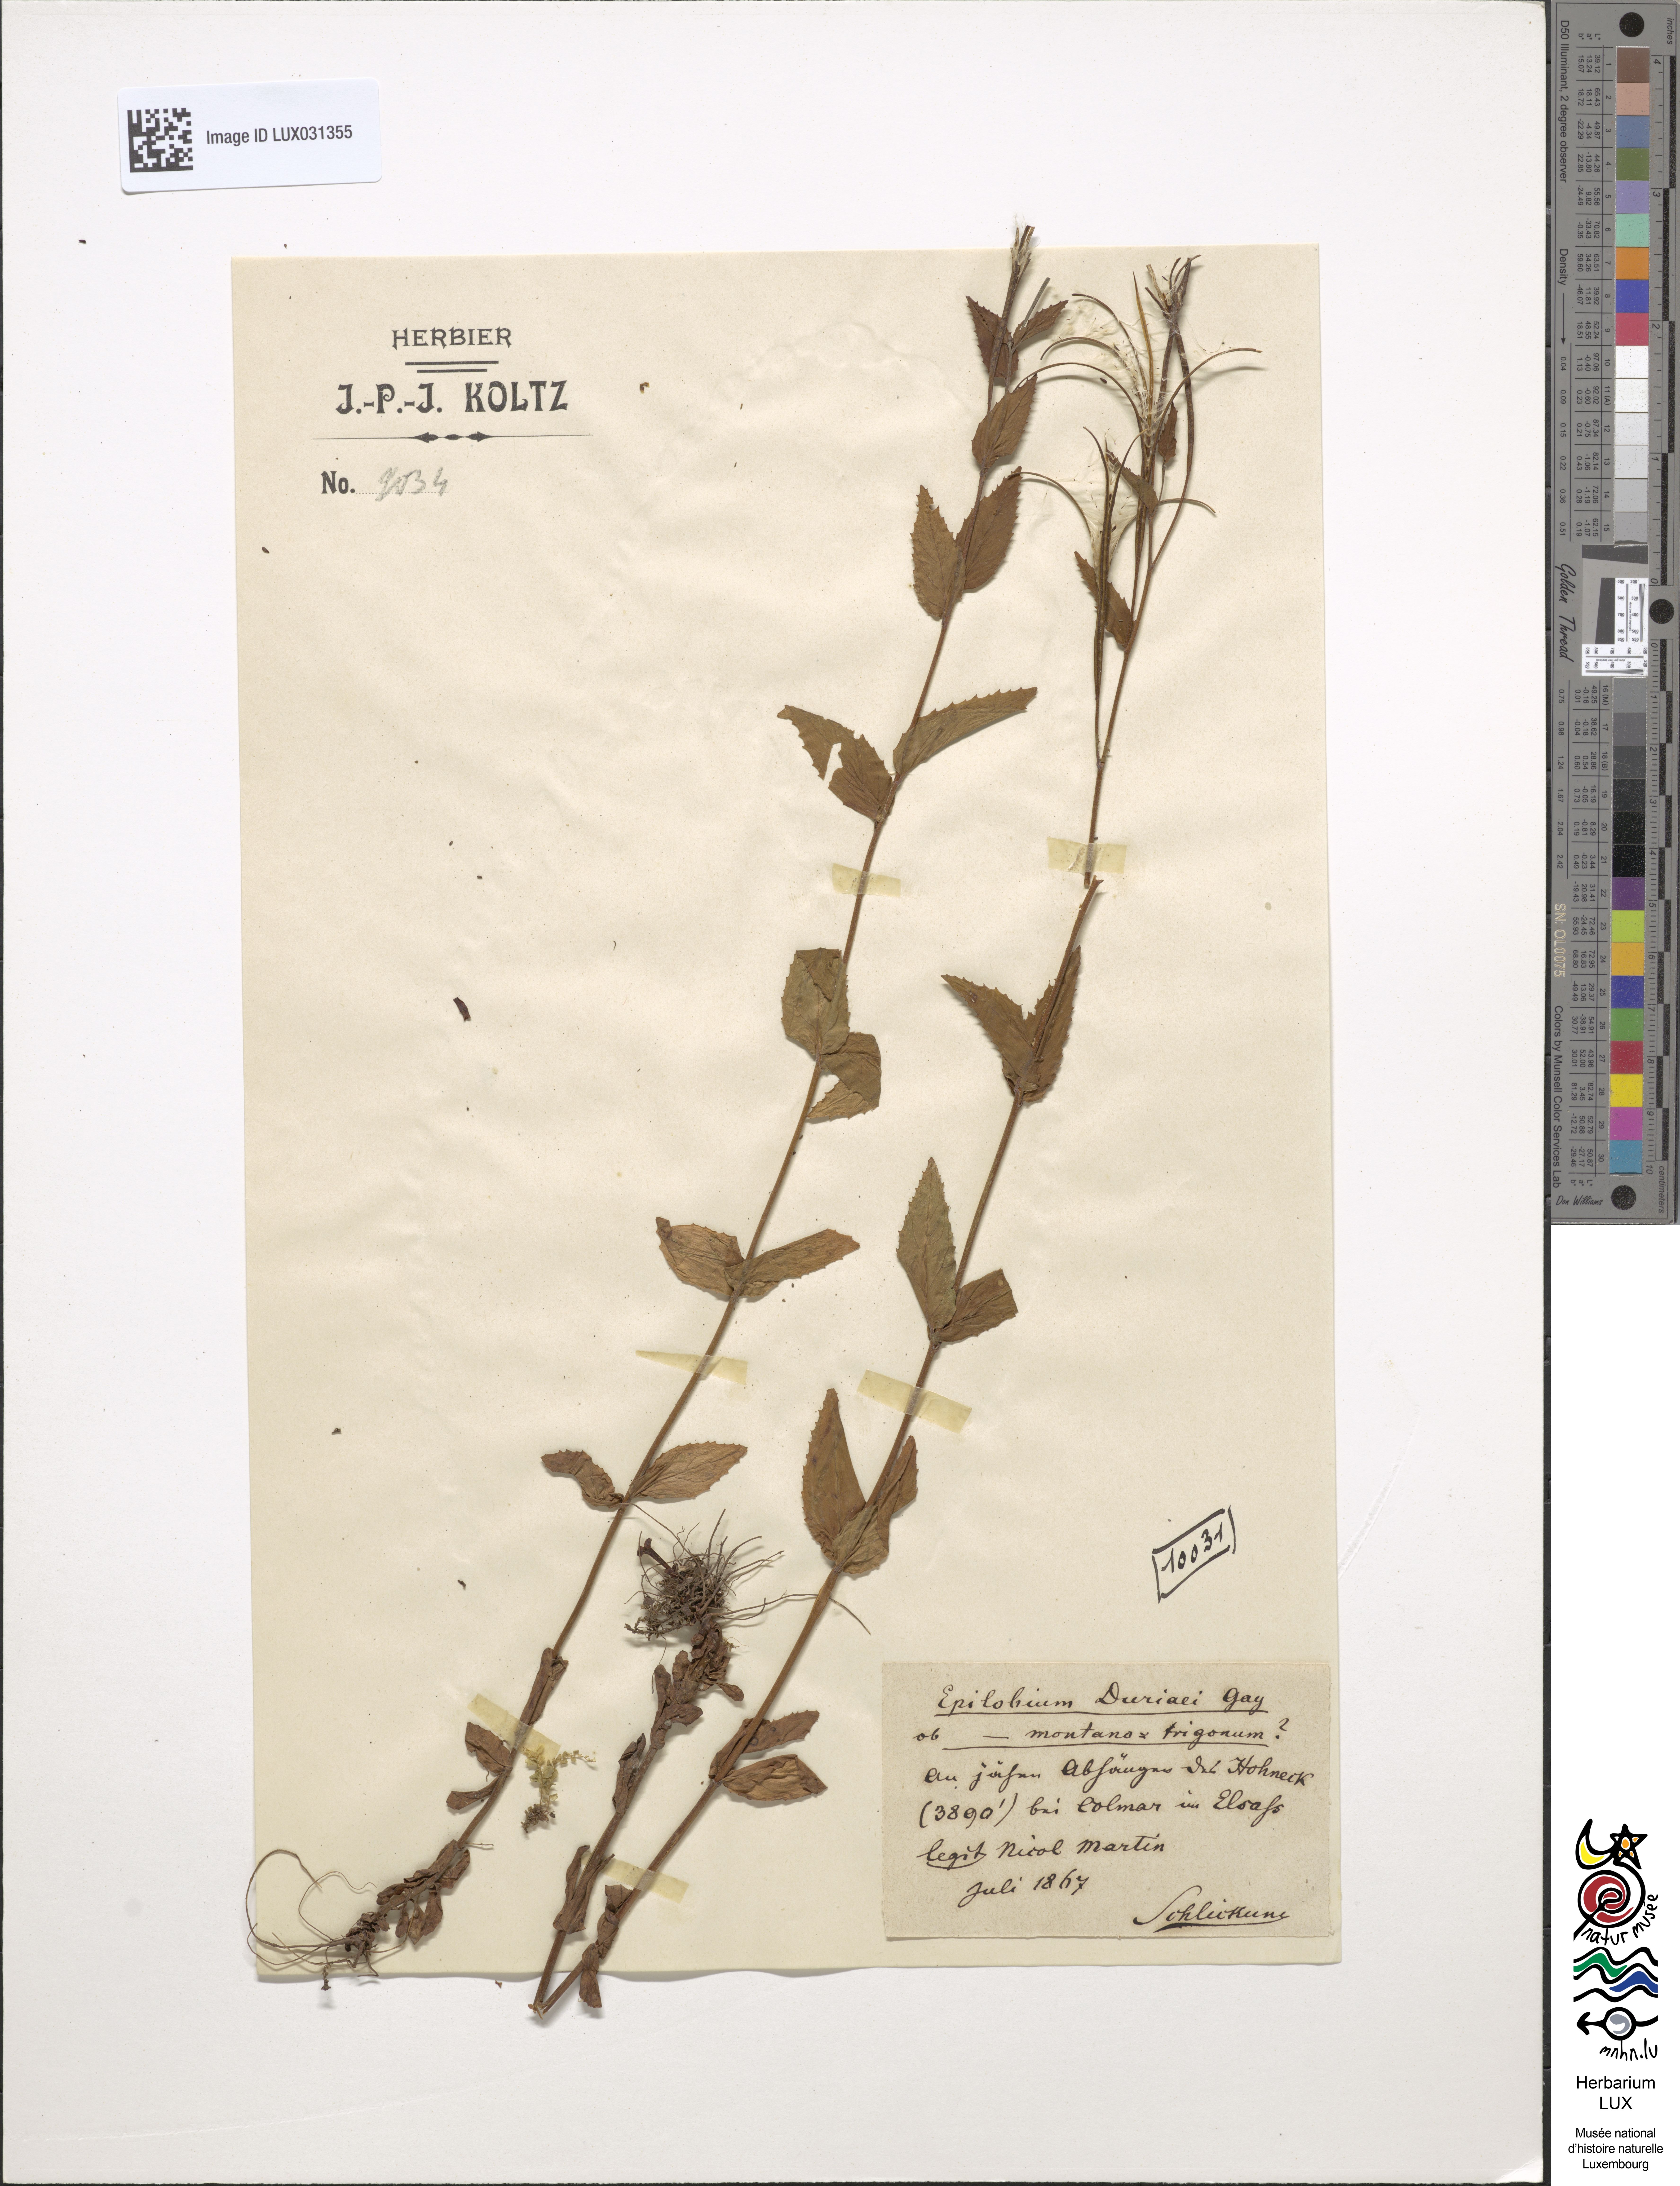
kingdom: Plantae
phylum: Tracheophyta
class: Magnoliopsida
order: Myrtales
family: Onagraceae
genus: Epilobium
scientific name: Epilobium duriaei
